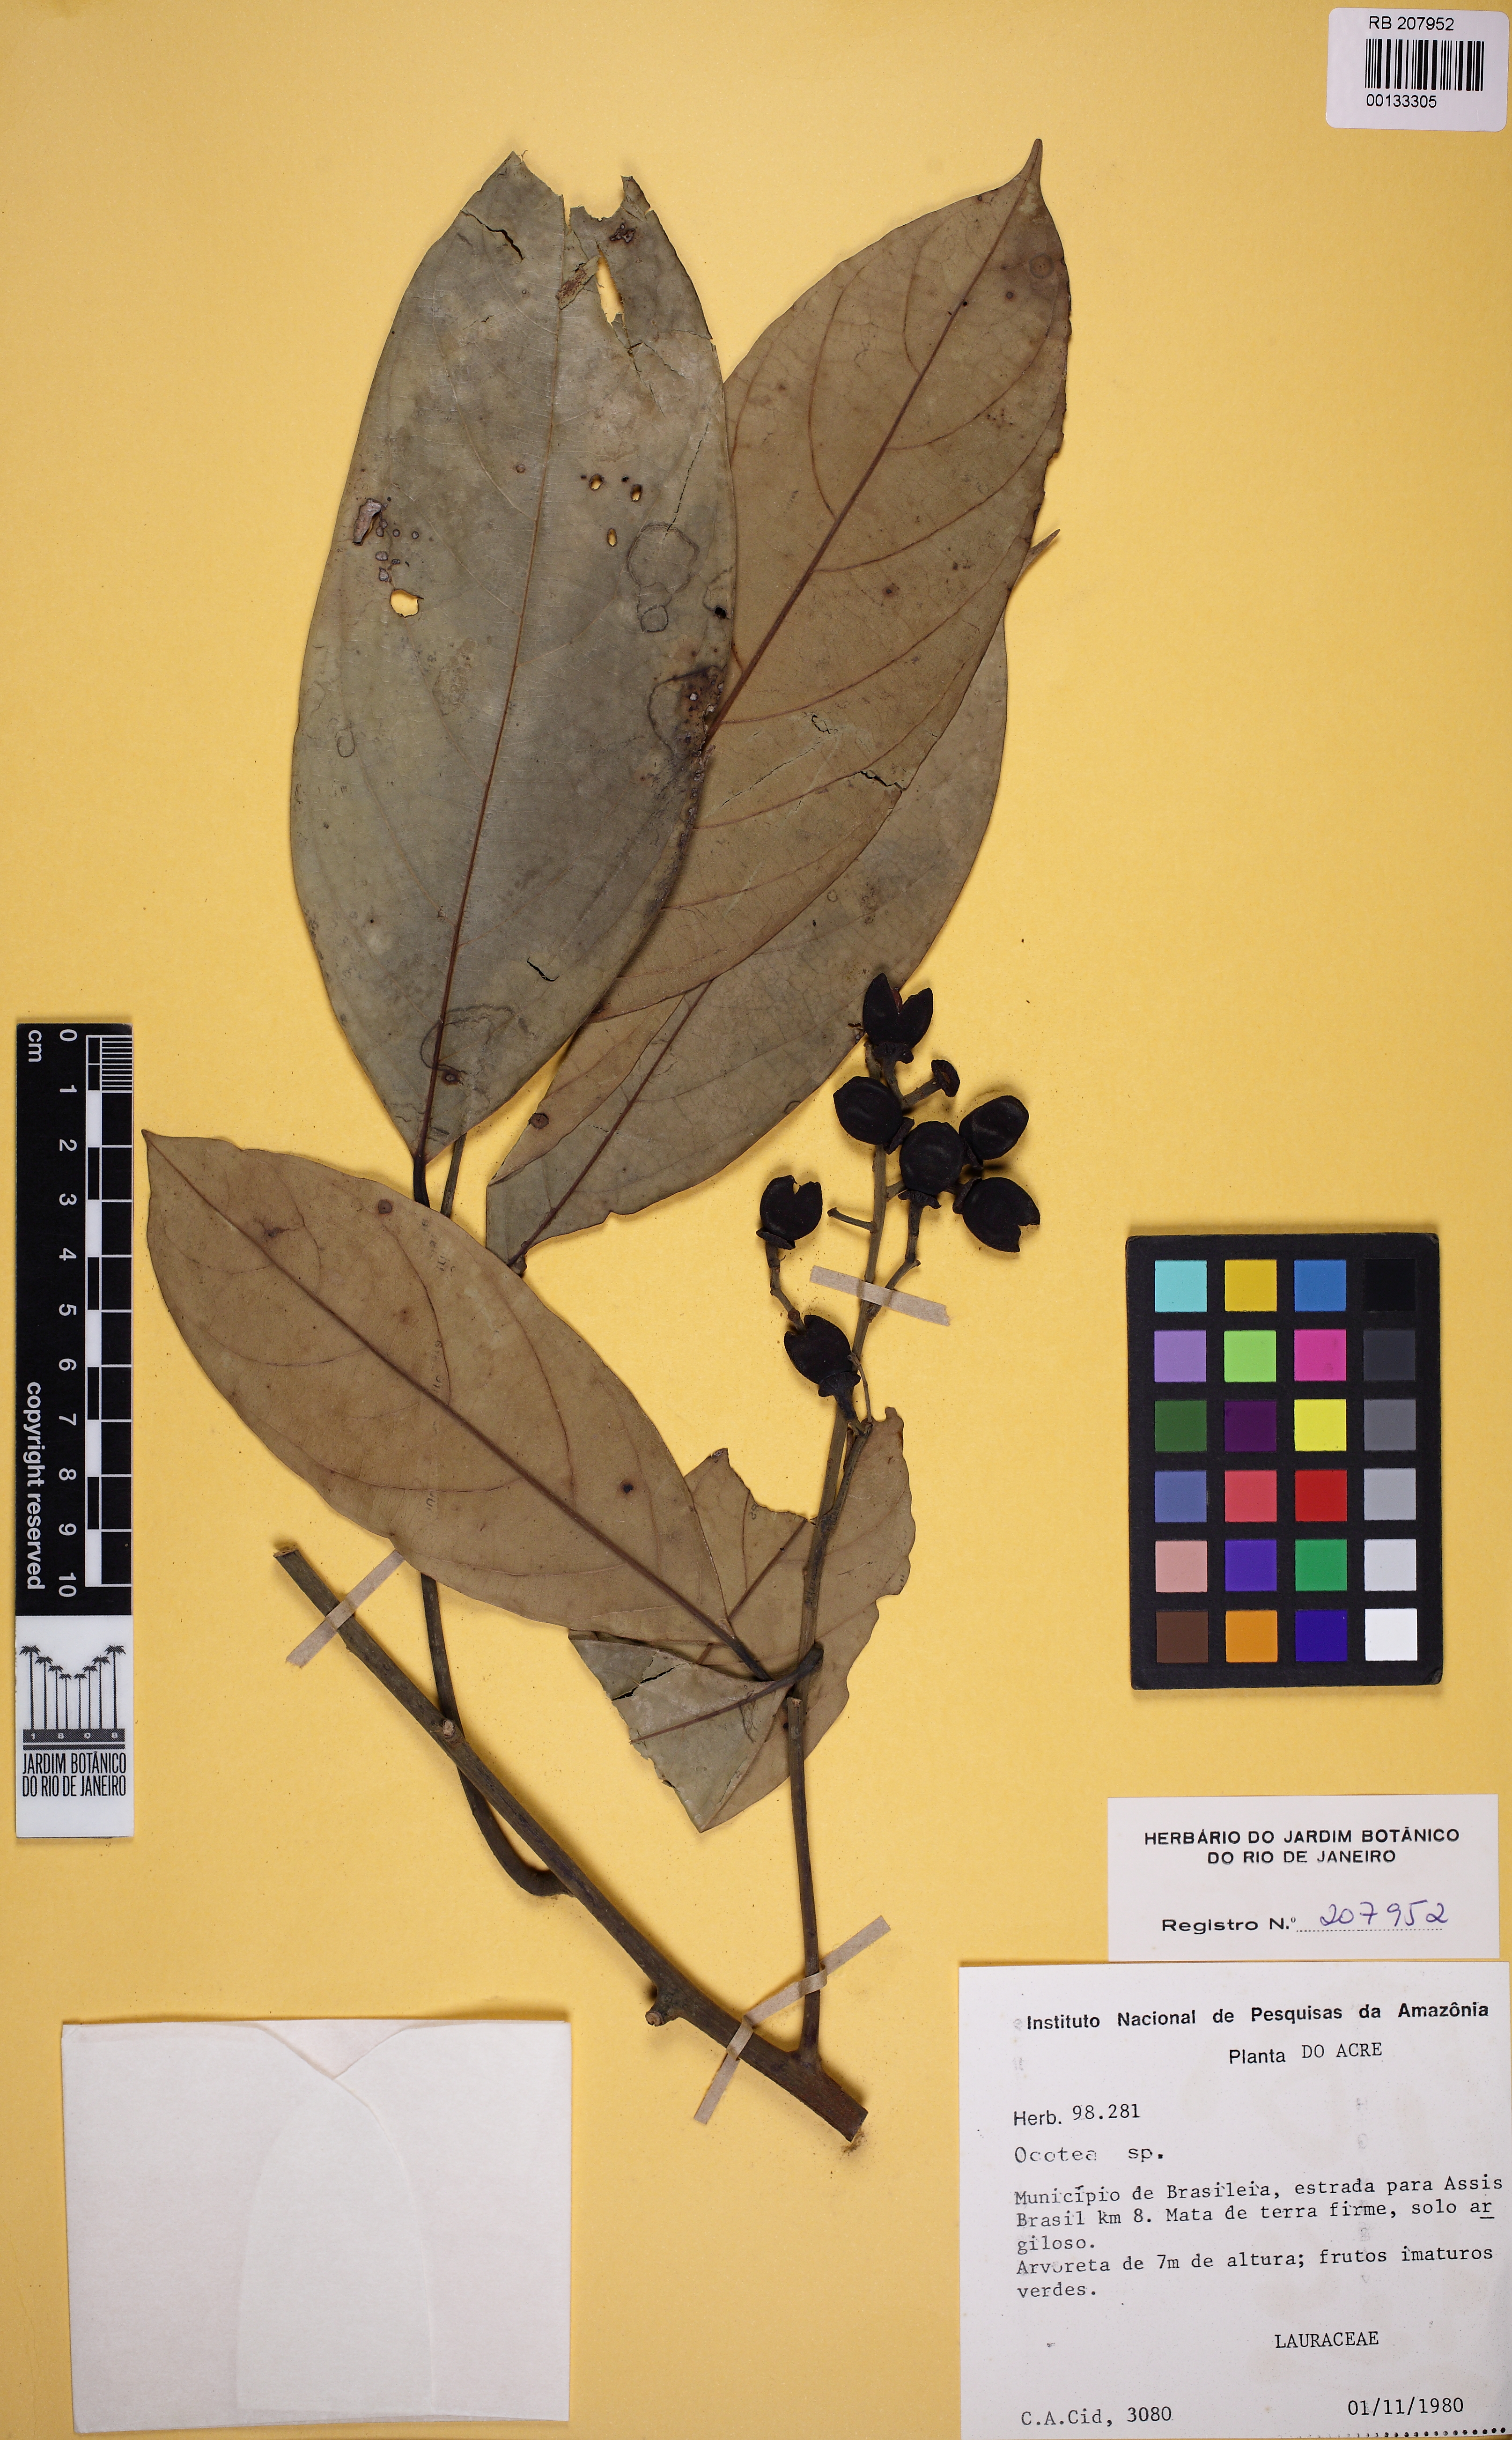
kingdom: Plantae
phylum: Tracheophyta
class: Magnoliopsida
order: Laurales
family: Lauraceae
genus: Ocotea
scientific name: Ocotea
